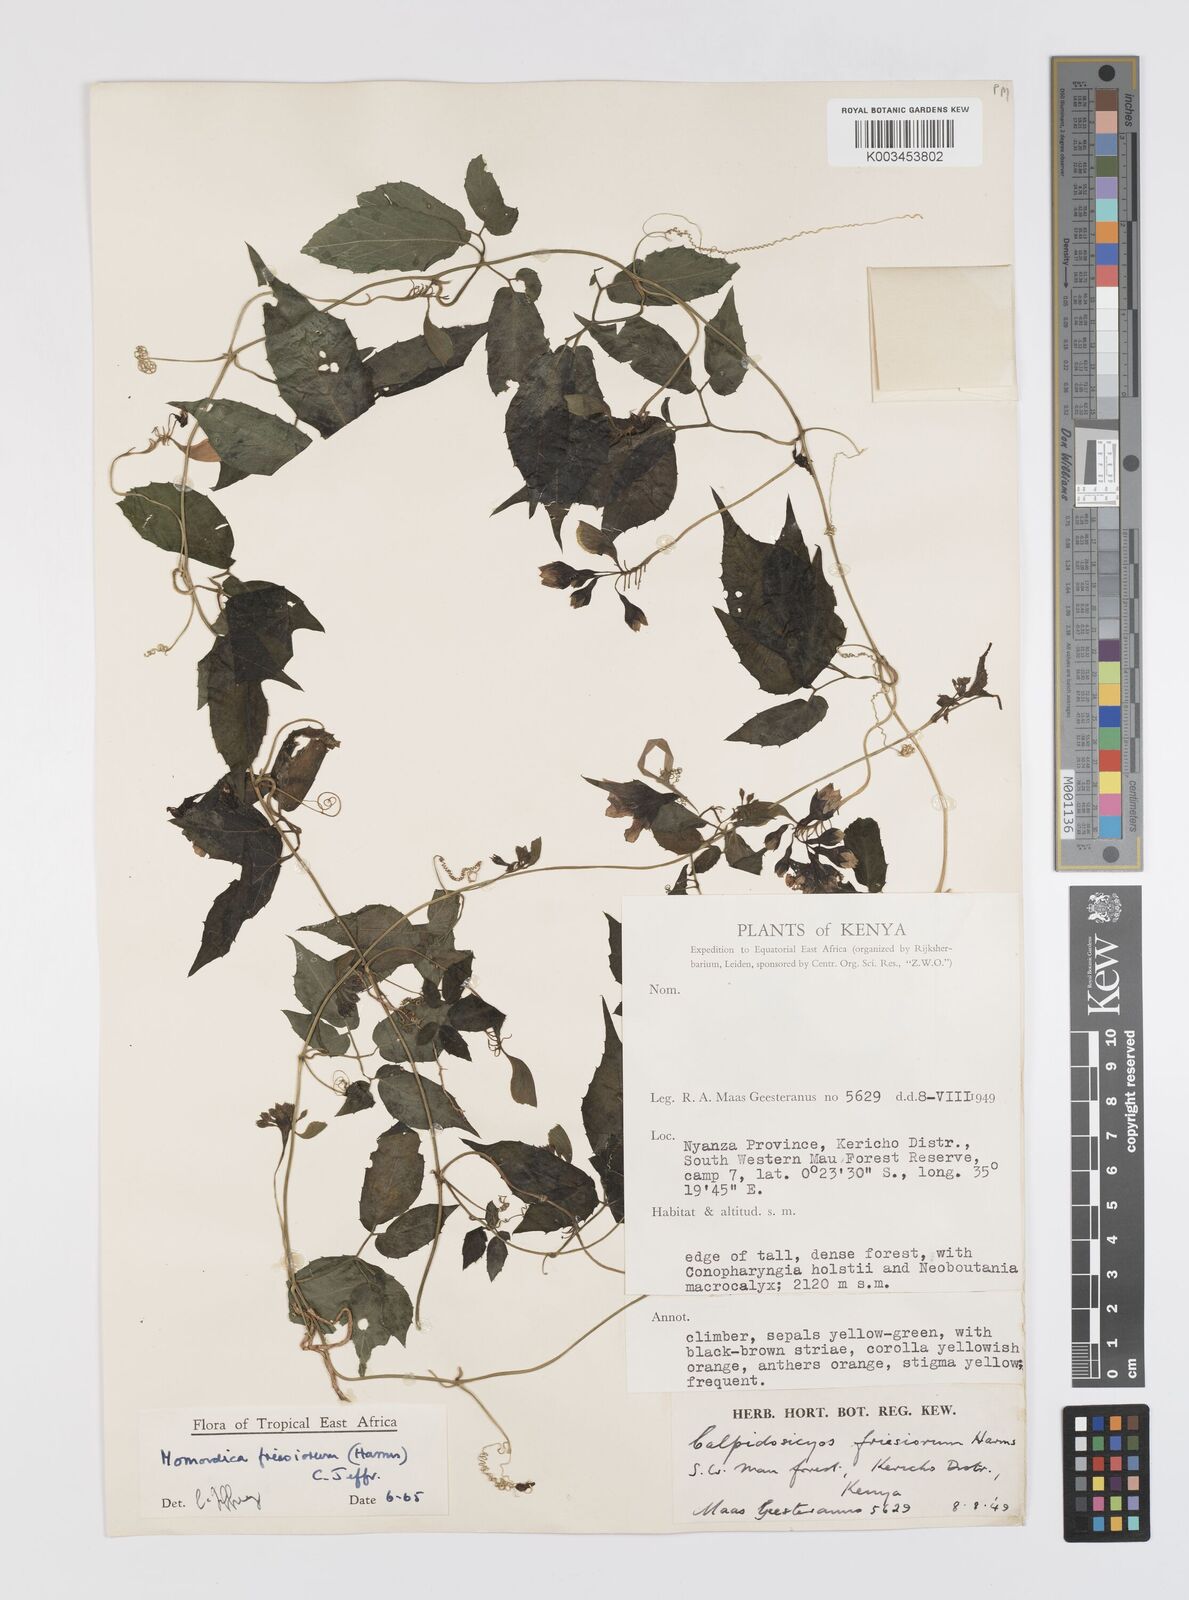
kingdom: Plantae
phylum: Tracheophyta
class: Magnoliopsida
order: Cucurbitales
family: Cucurbitaceae
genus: Momordica
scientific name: Momordica friesiorum
